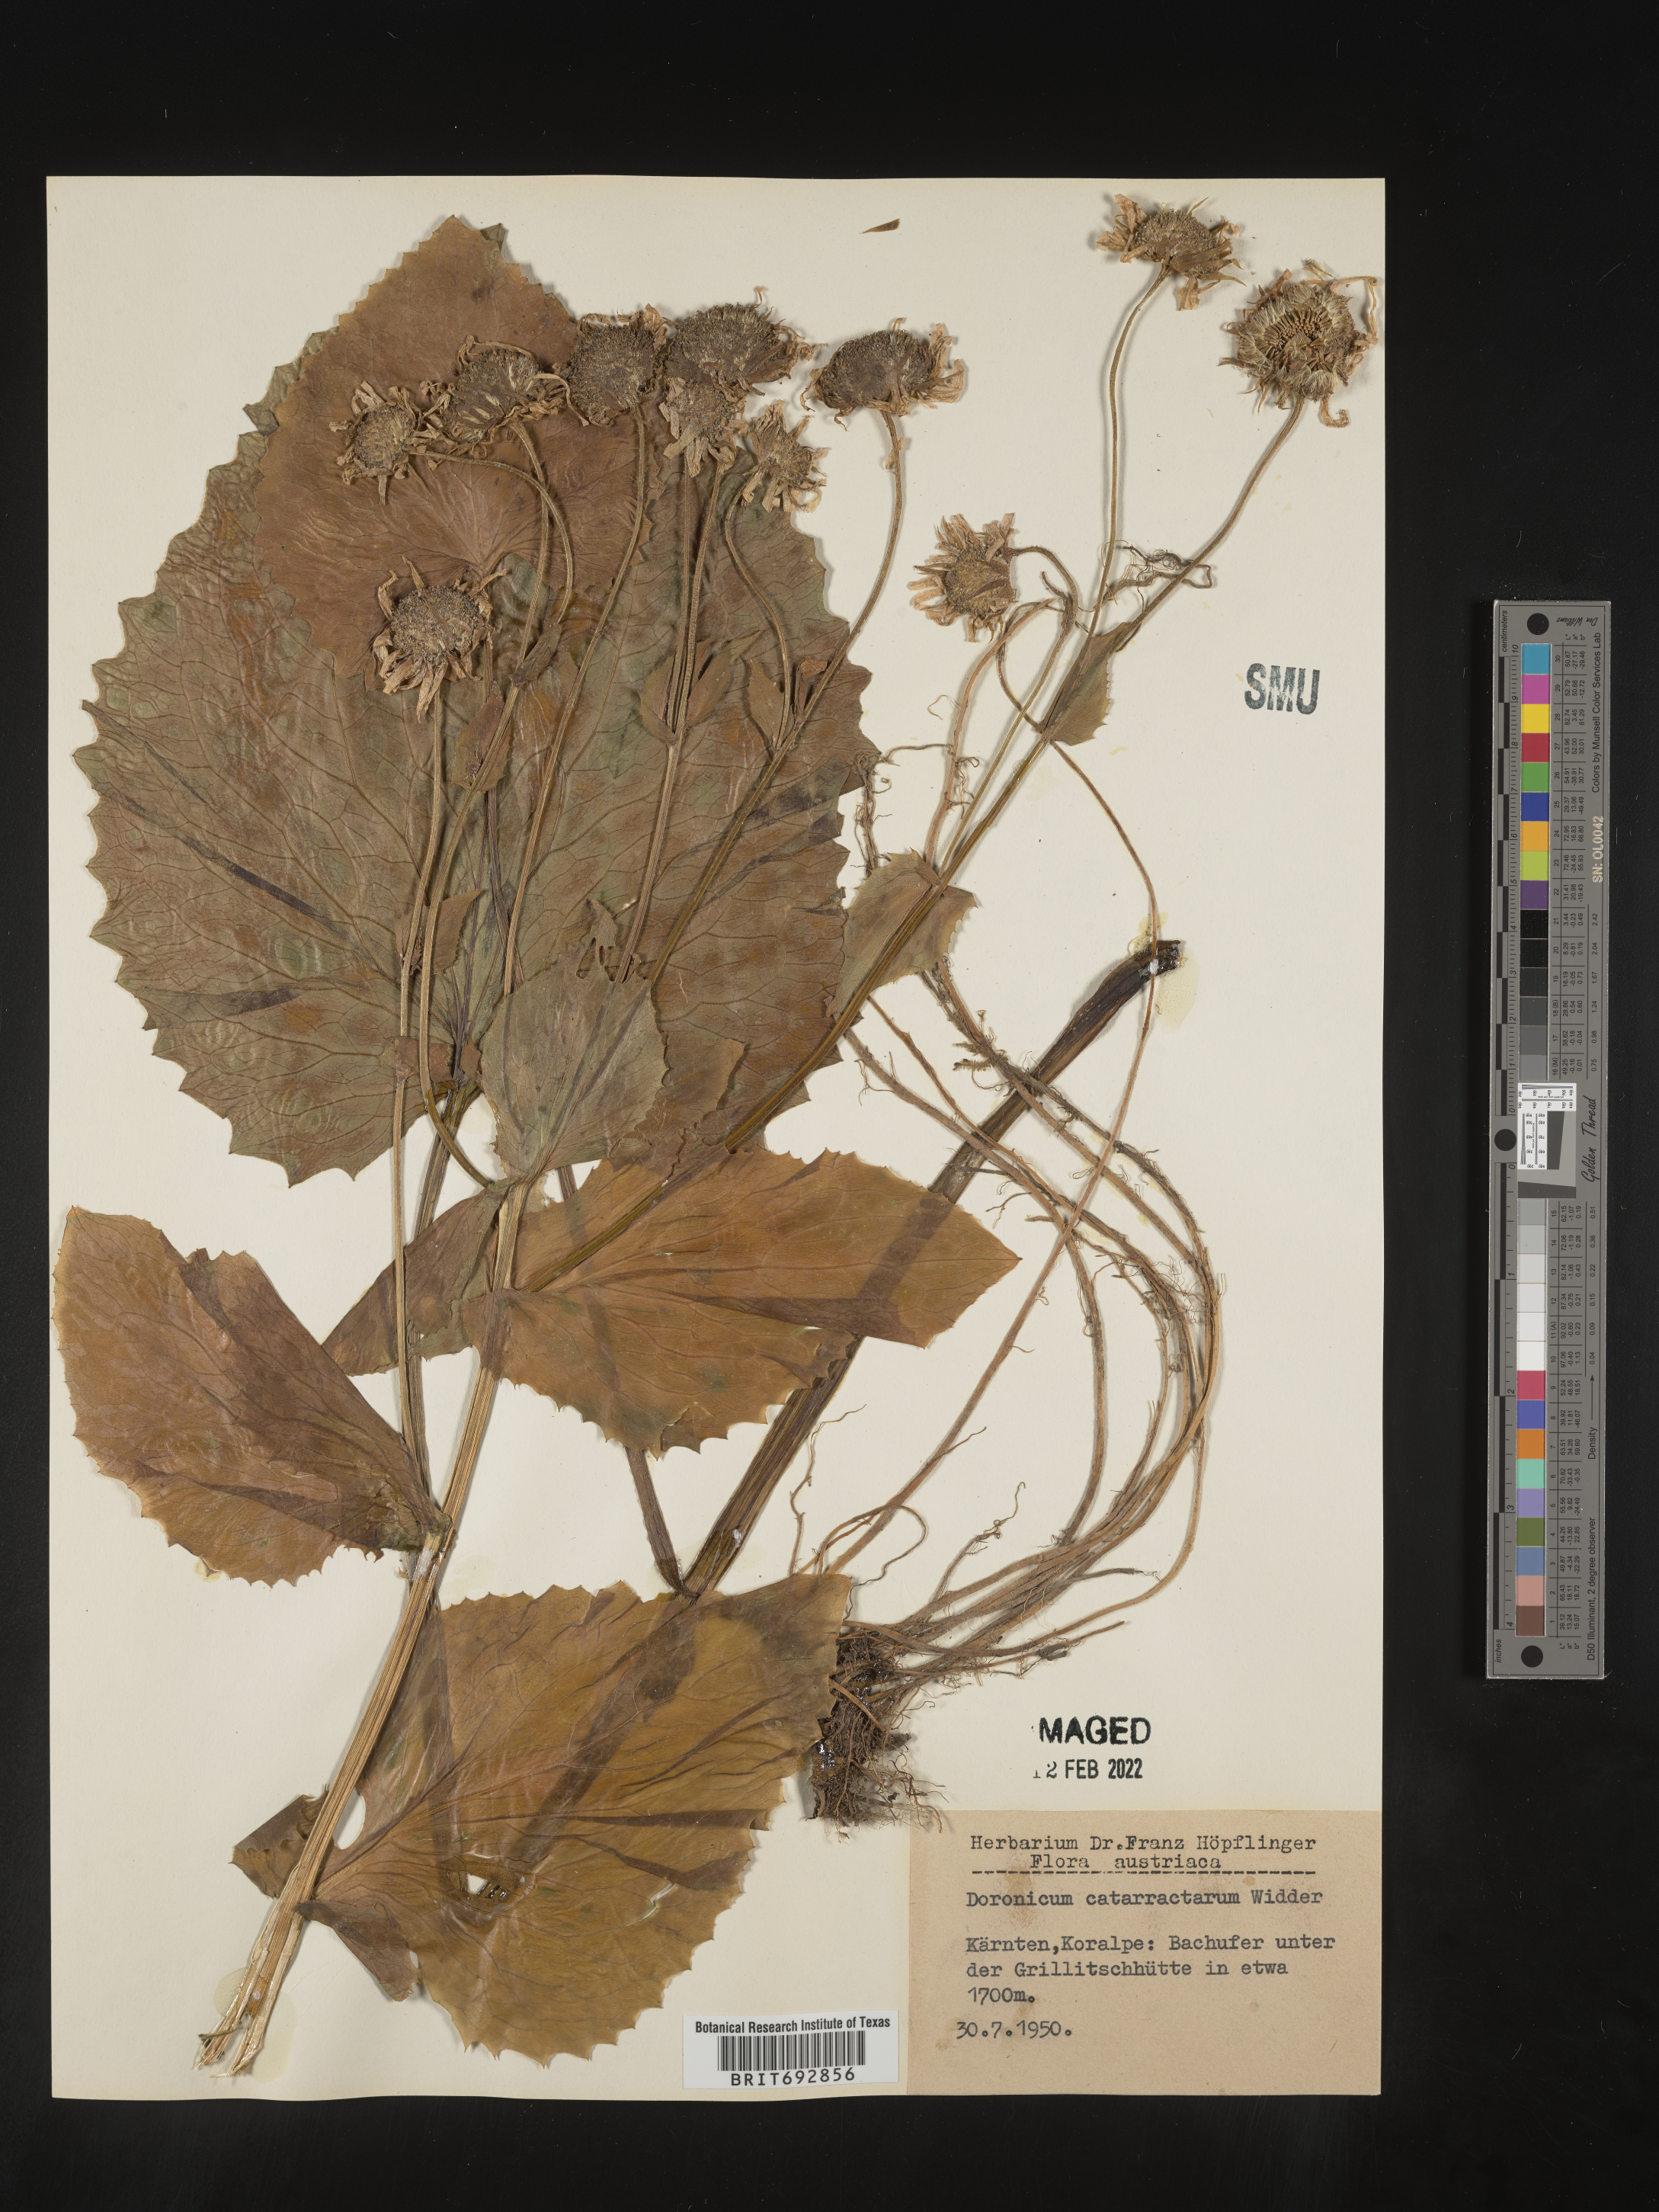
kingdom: Plantae
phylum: Tracheophyta
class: Magnoliopsida
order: Asterales
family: Asteraceae
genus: Doronicum
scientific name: Doronicum
